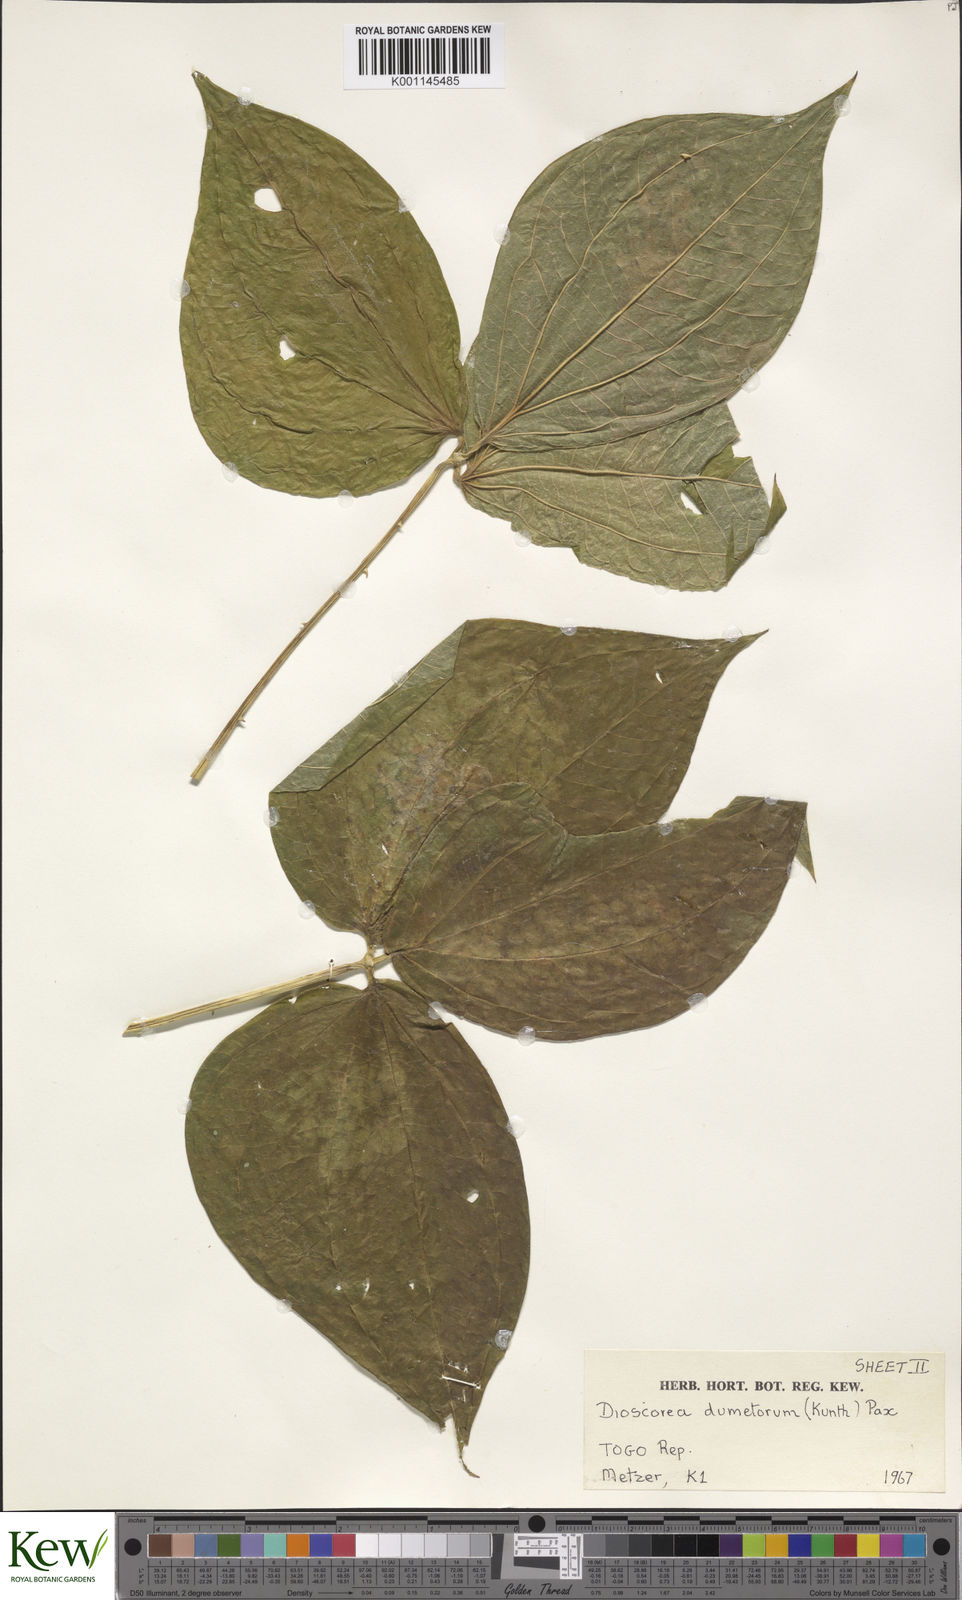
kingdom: Plantae
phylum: Tracheophyta
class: Liliopsida
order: Dioscoreales
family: Dioscoreaceae
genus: Dioscorea
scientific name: Dioscorea dumetorum
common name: African bitter yam
